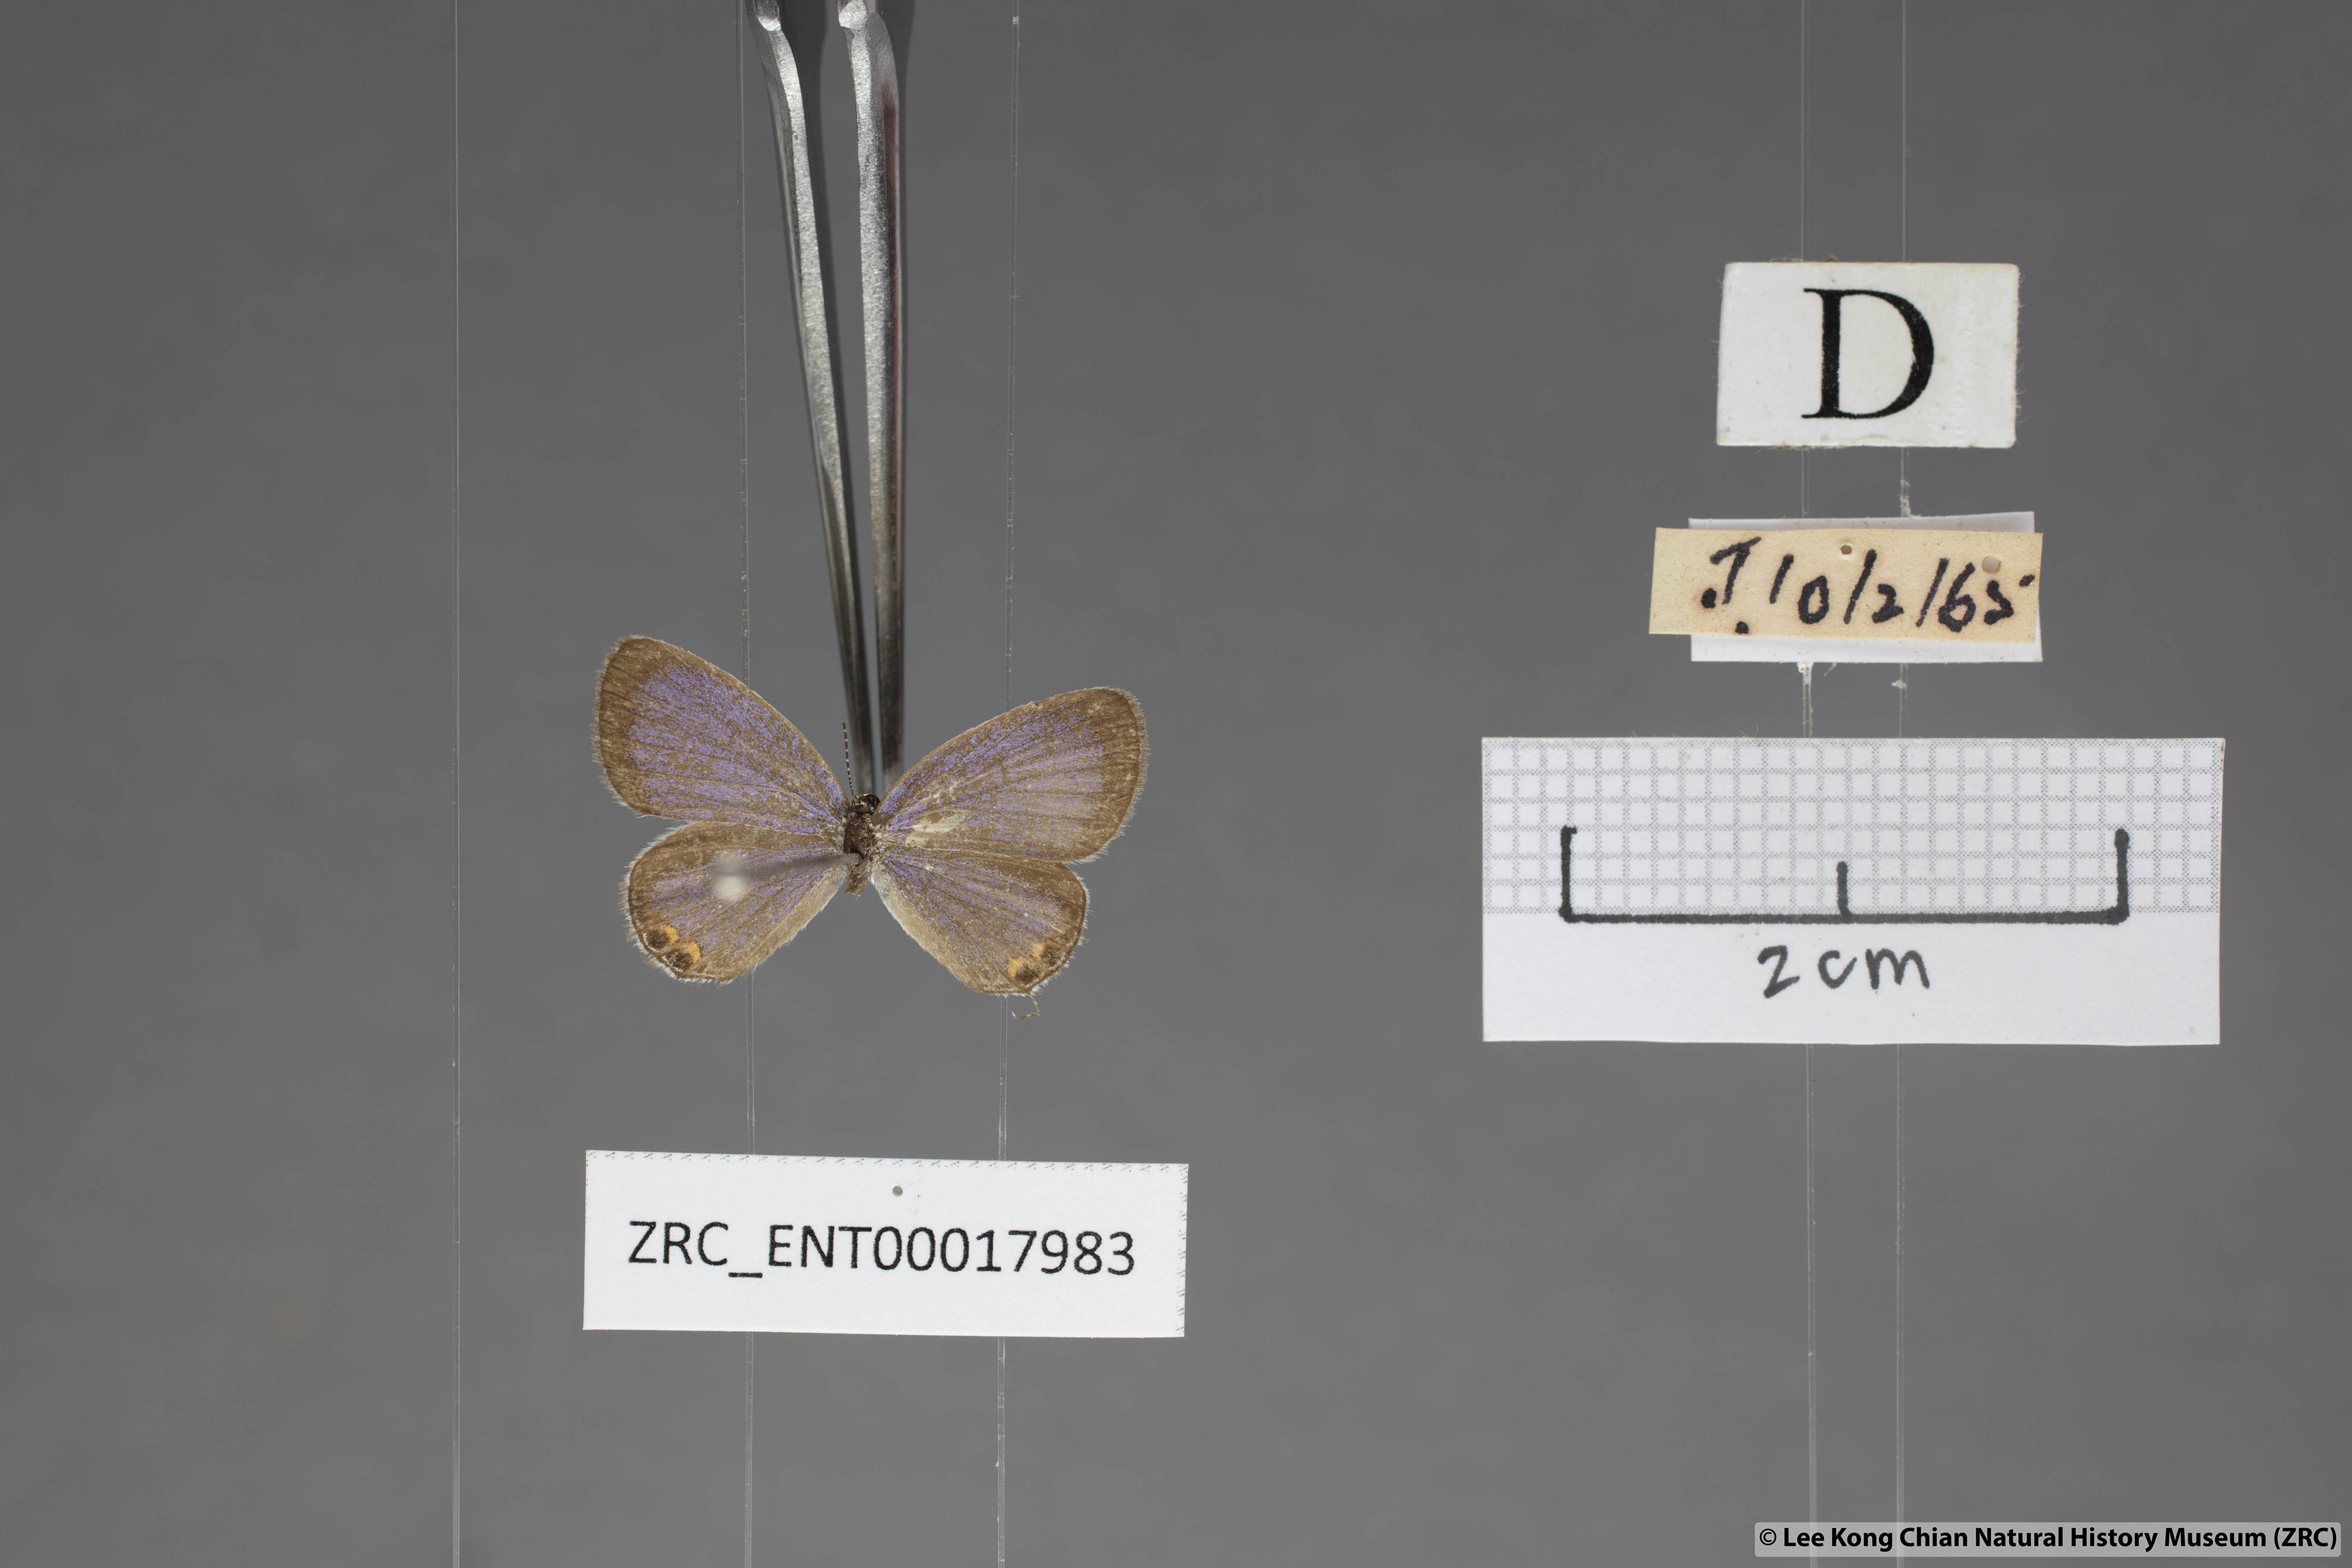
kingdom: Animalia
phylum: Arthropoda
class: Insecta
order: Lepidoptera
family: Lycaenidae
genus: Everes
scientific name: Everes lacturnus
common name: Orange-tipped pea-blue
